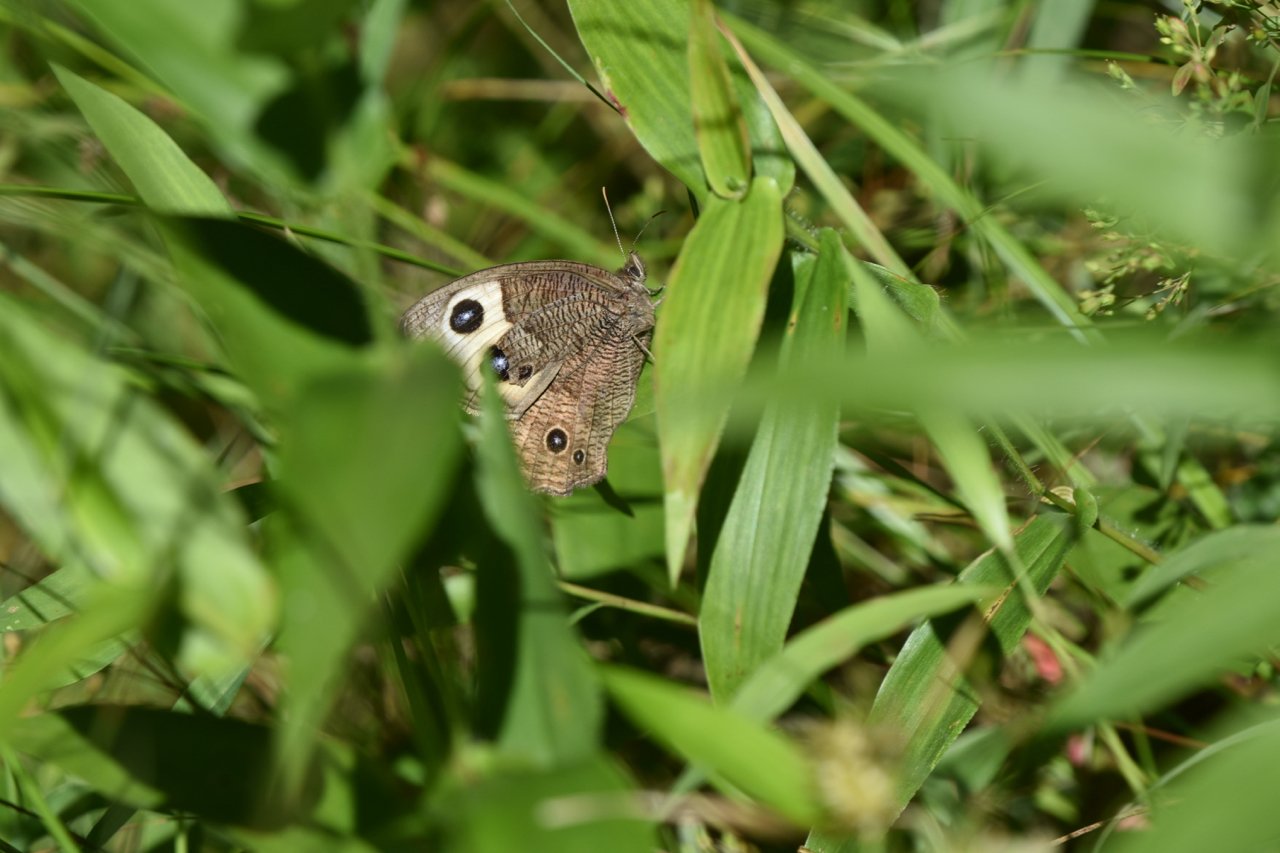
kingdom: Animalia
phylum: Arthropoda
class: Insecta
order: Lepidoptera
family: Nymphalidae
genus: Cercyonis
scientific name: Cercyonis pegala
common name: Common Wood-Nymph
